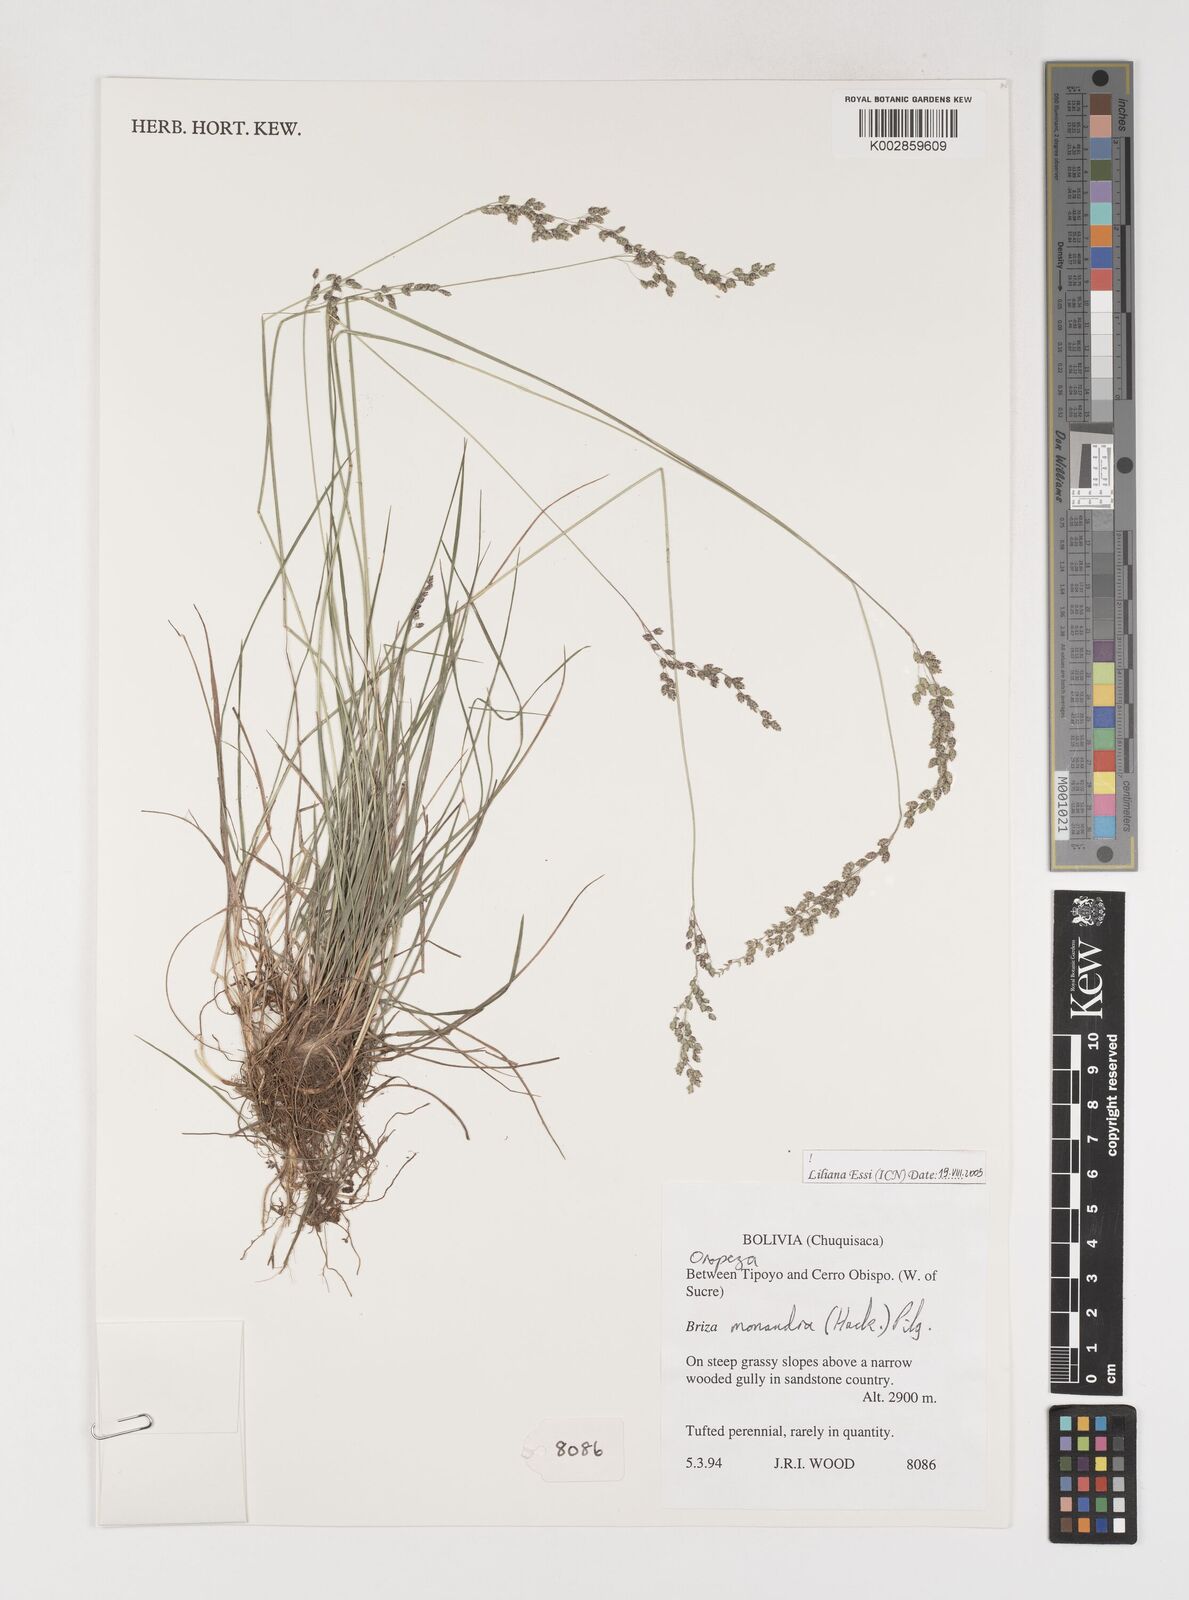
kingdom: Plantae
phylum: Tracheophyta
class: Liliopsida
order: Poales
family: Poaceae
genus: Poidium
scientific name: Poidium monandrum
